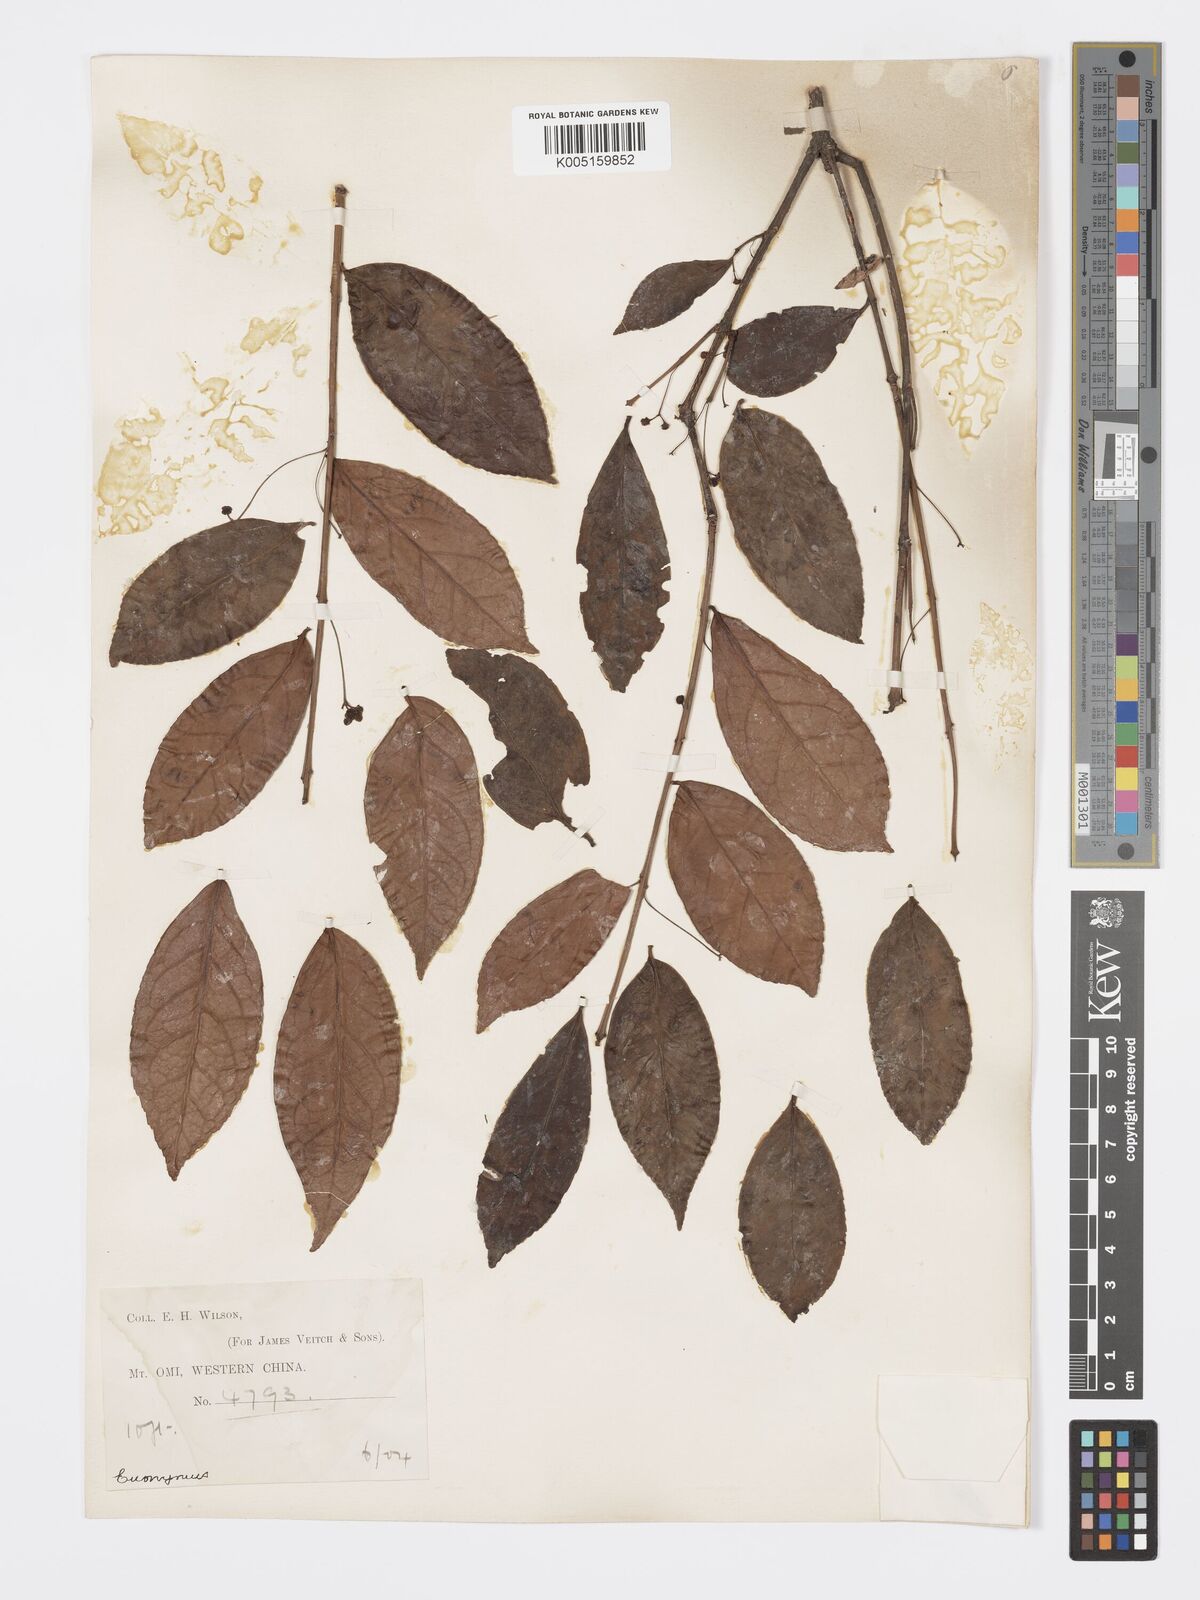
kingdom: Plantae
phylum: Tracheophyta
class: Magnoliopsida
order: Celastrales
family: Celastraceae
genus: Euonymus
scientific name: Euonymus bockii
